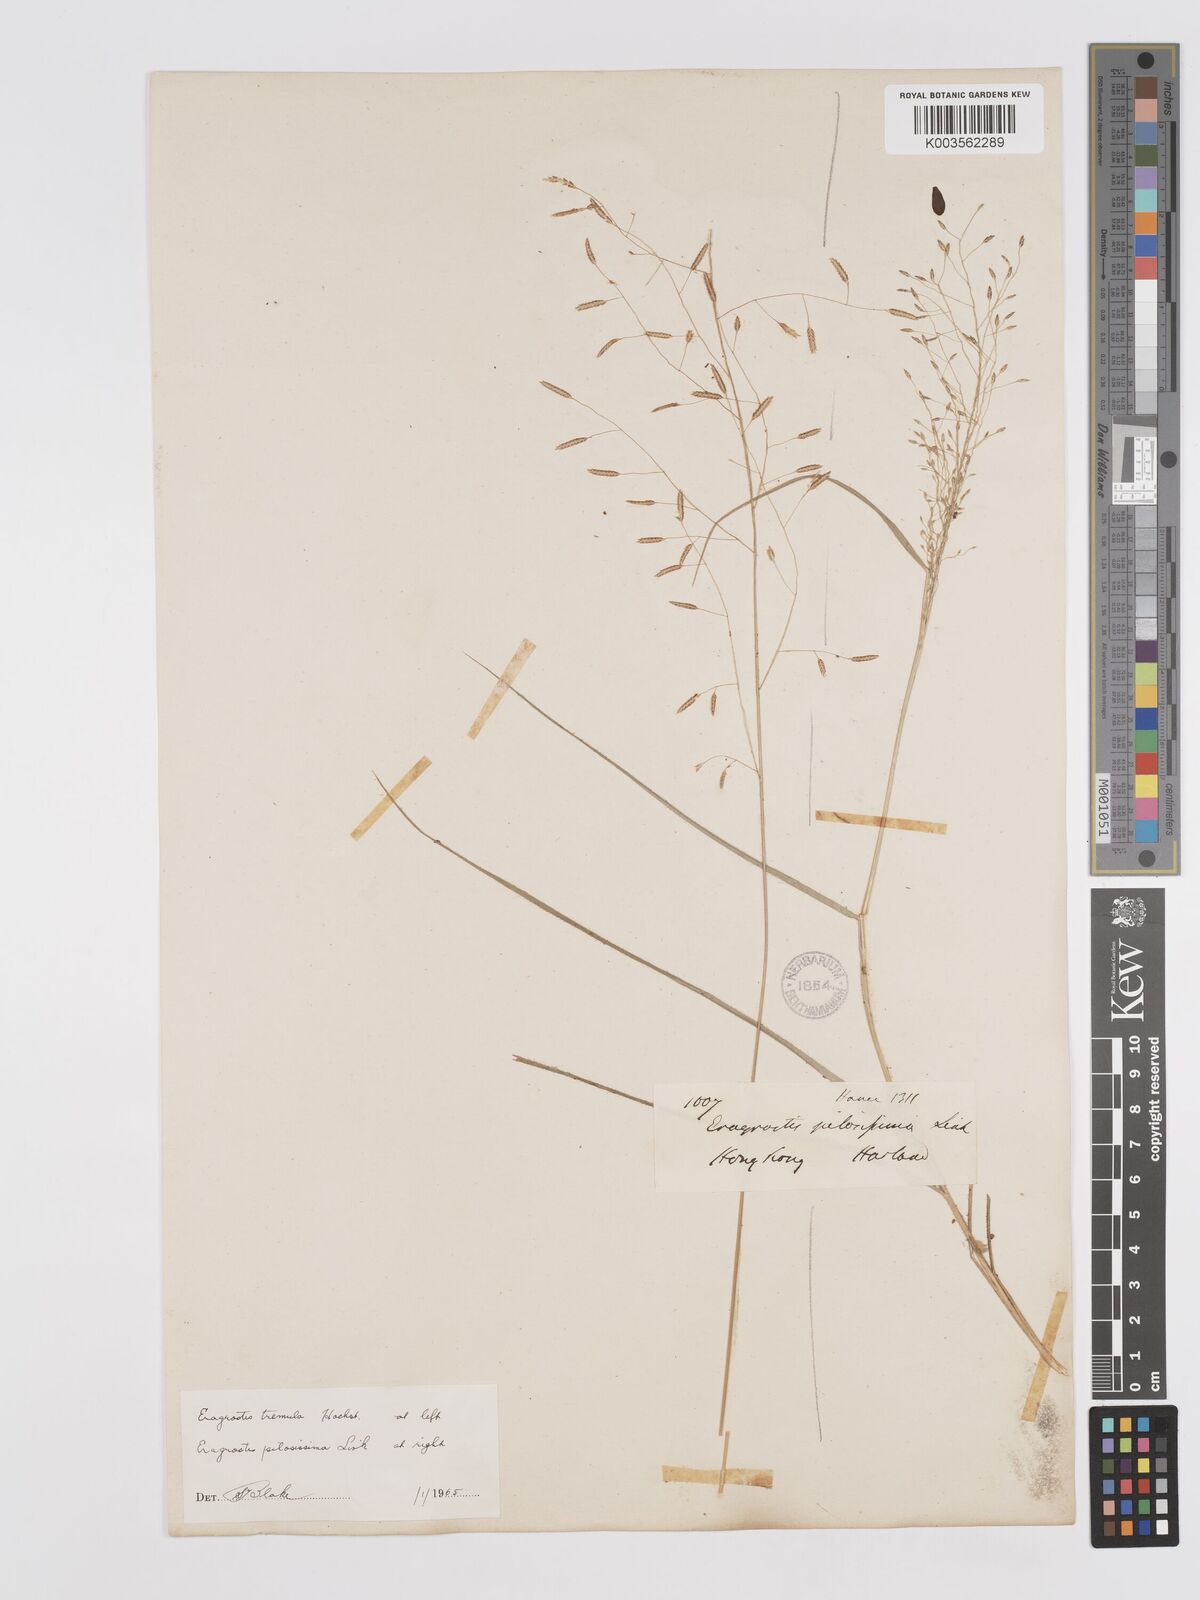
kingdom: Plantae
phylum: Tracheophyta
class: Liliopsida
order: Poales
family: Poaceae
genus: Eragrostis
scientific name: Eragrostis pilosissima
